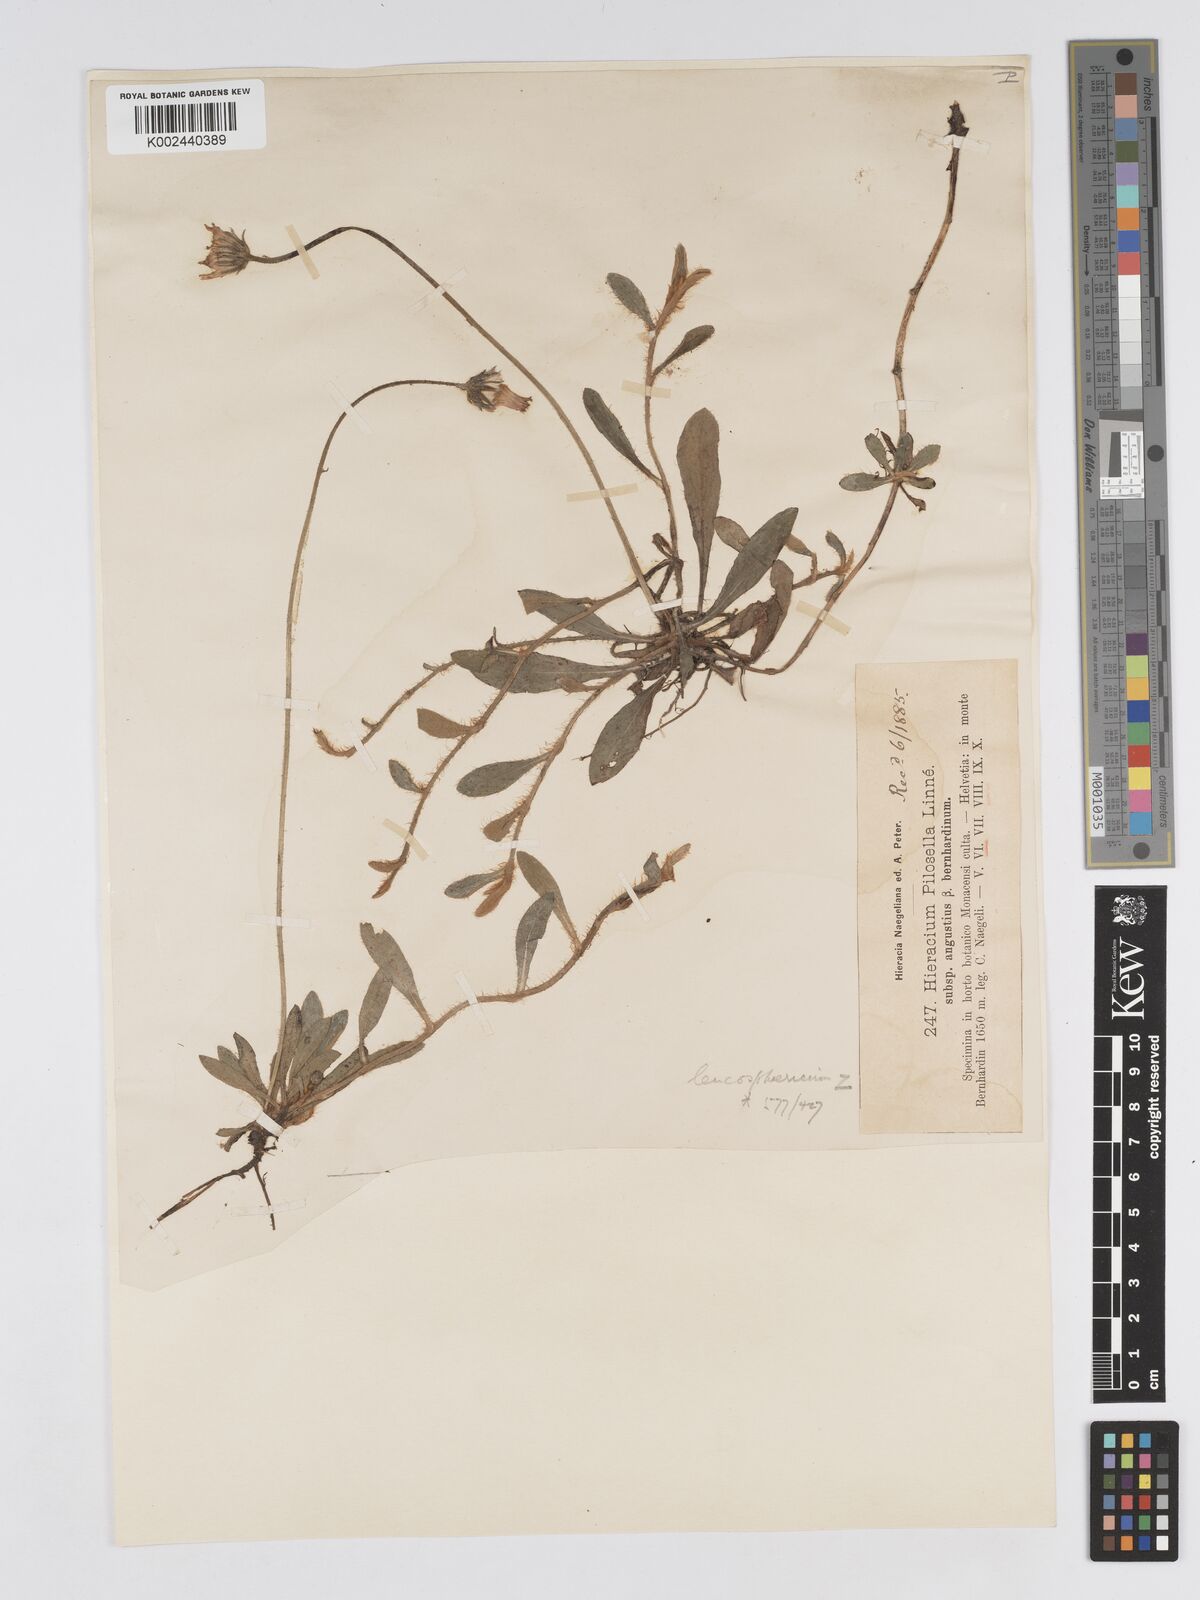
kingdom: Plantae
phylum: Tracheophyta
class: Magnoliopsida
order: Asterales
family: Asteraceae
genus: Pilosella
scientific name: Pilosella officinarum
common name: Mouse-ear hawkweed
